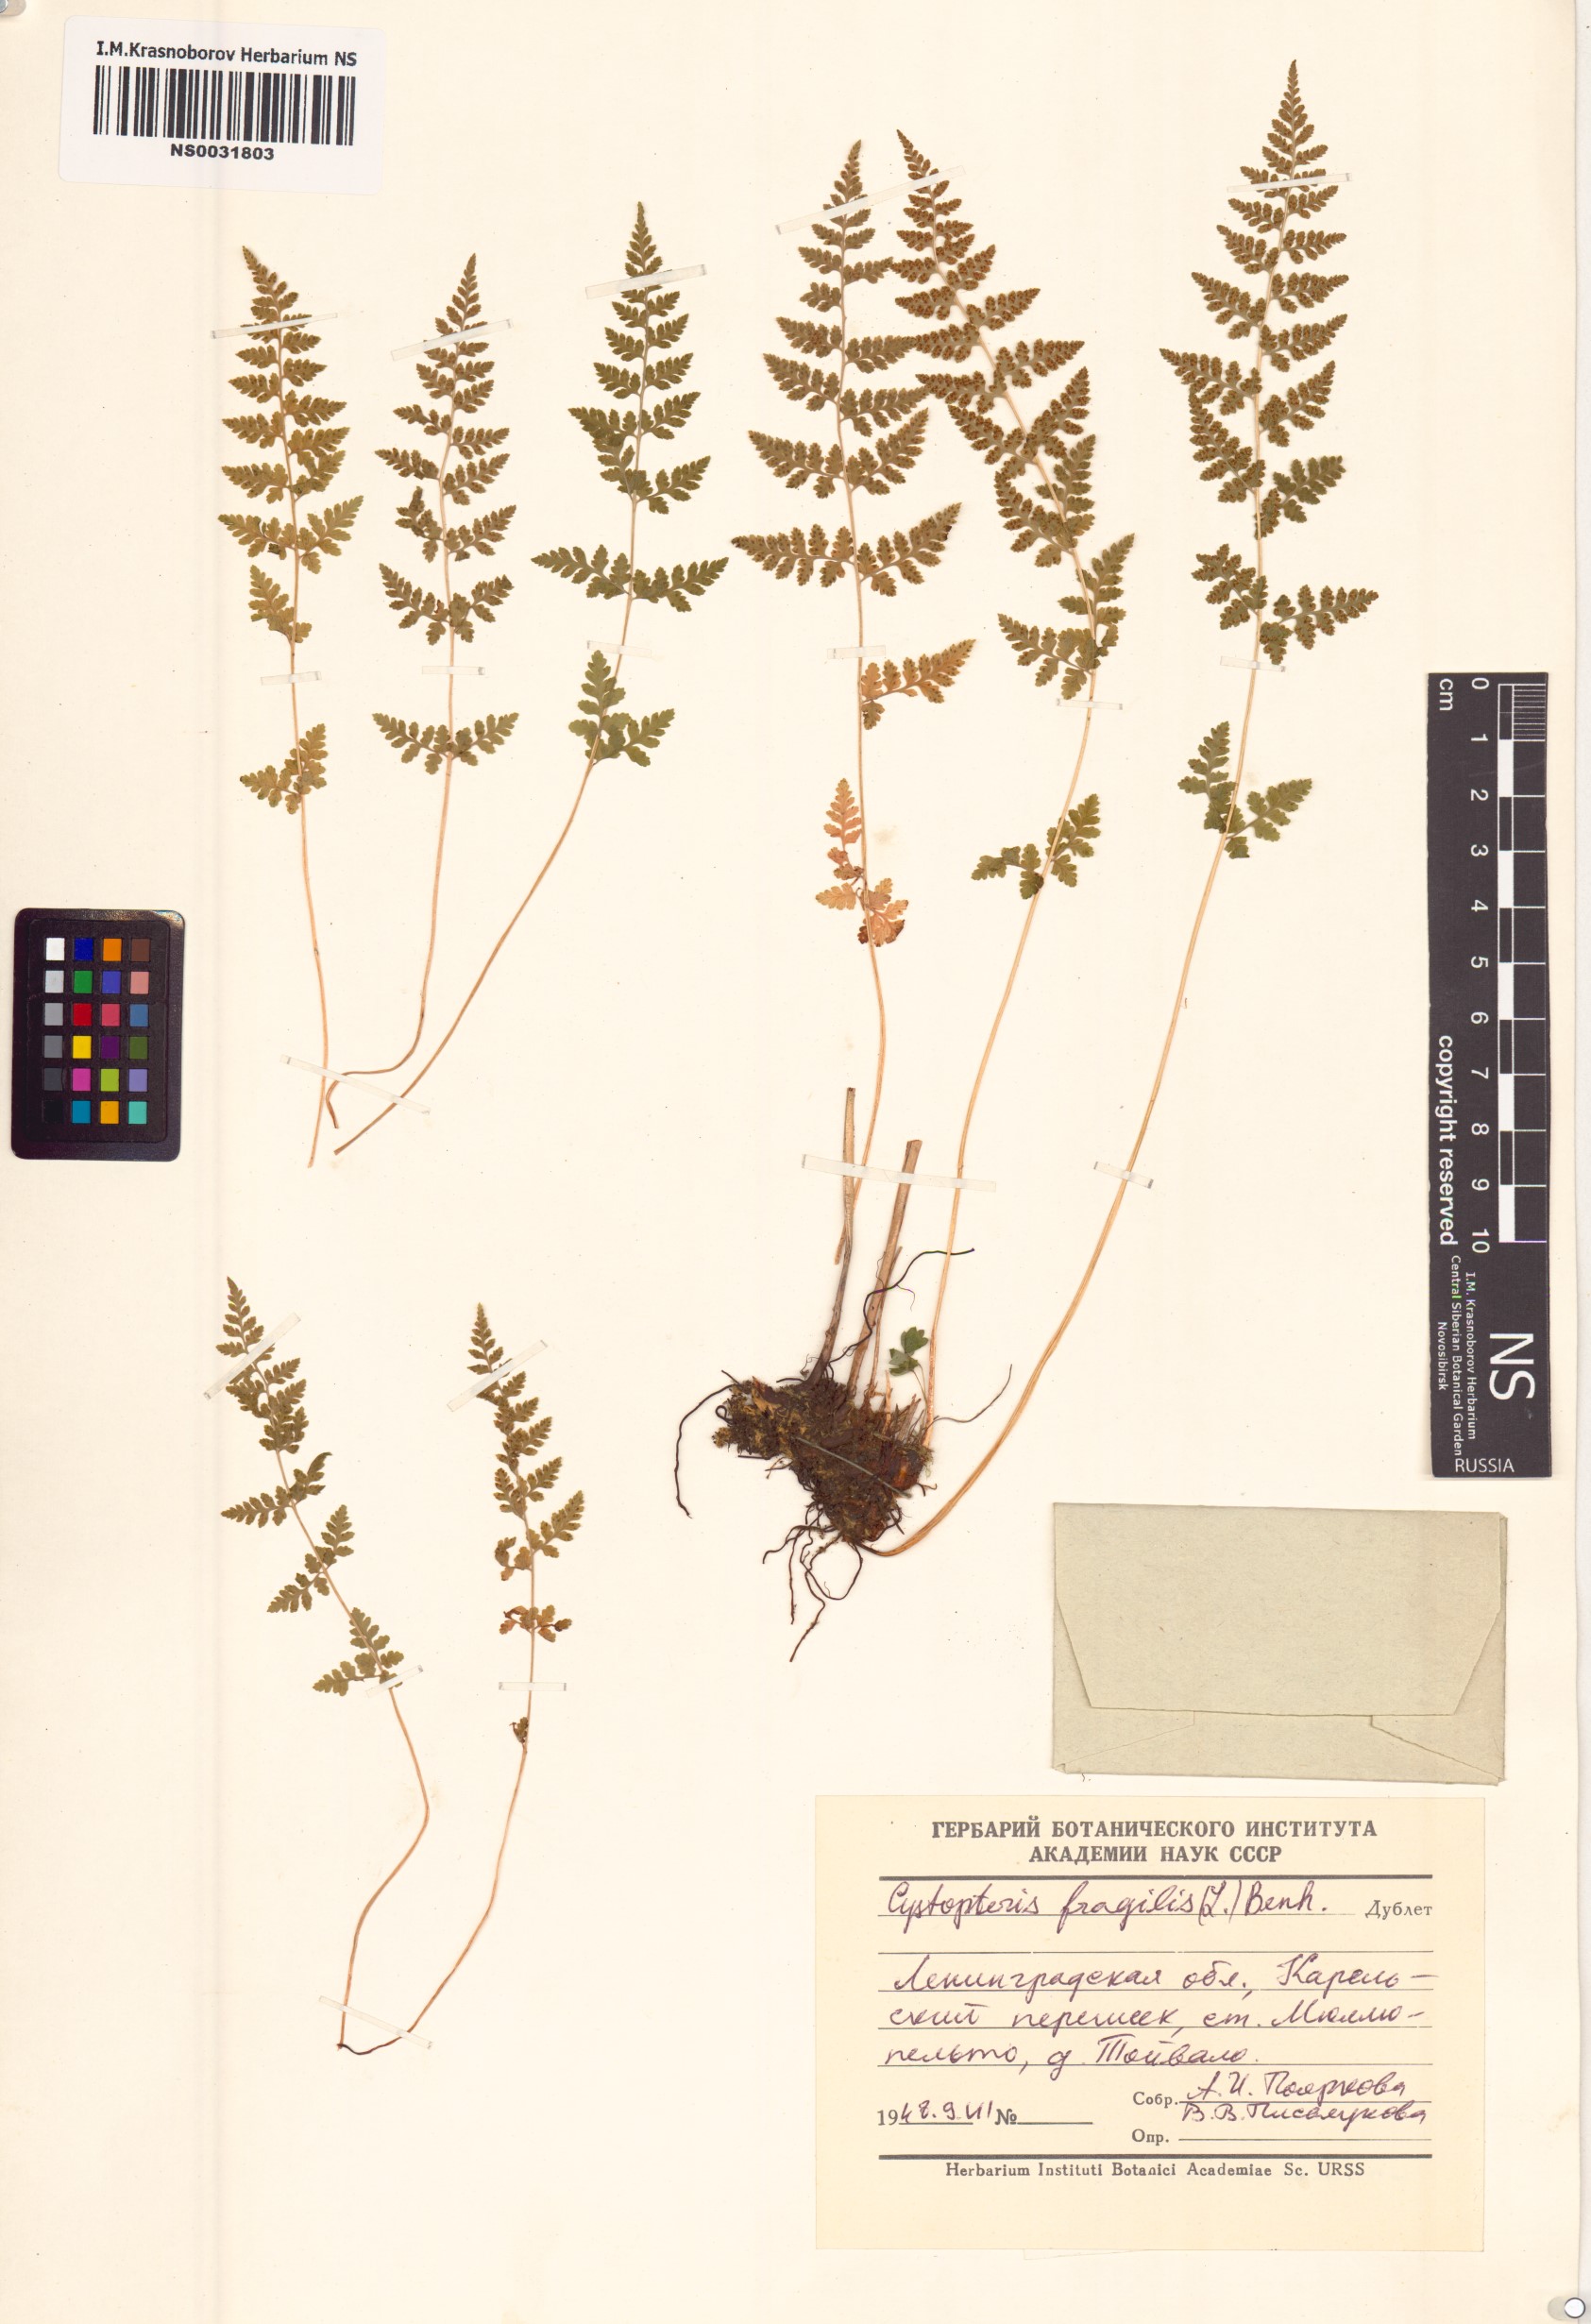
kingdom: Plantae
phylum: Tracheophyta
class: Polypodiopsida
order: Polypodiales
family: Cystopteridaceae
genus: Cystopteris
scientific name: Cystopteris fragilis
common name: Brittle bladder fern
